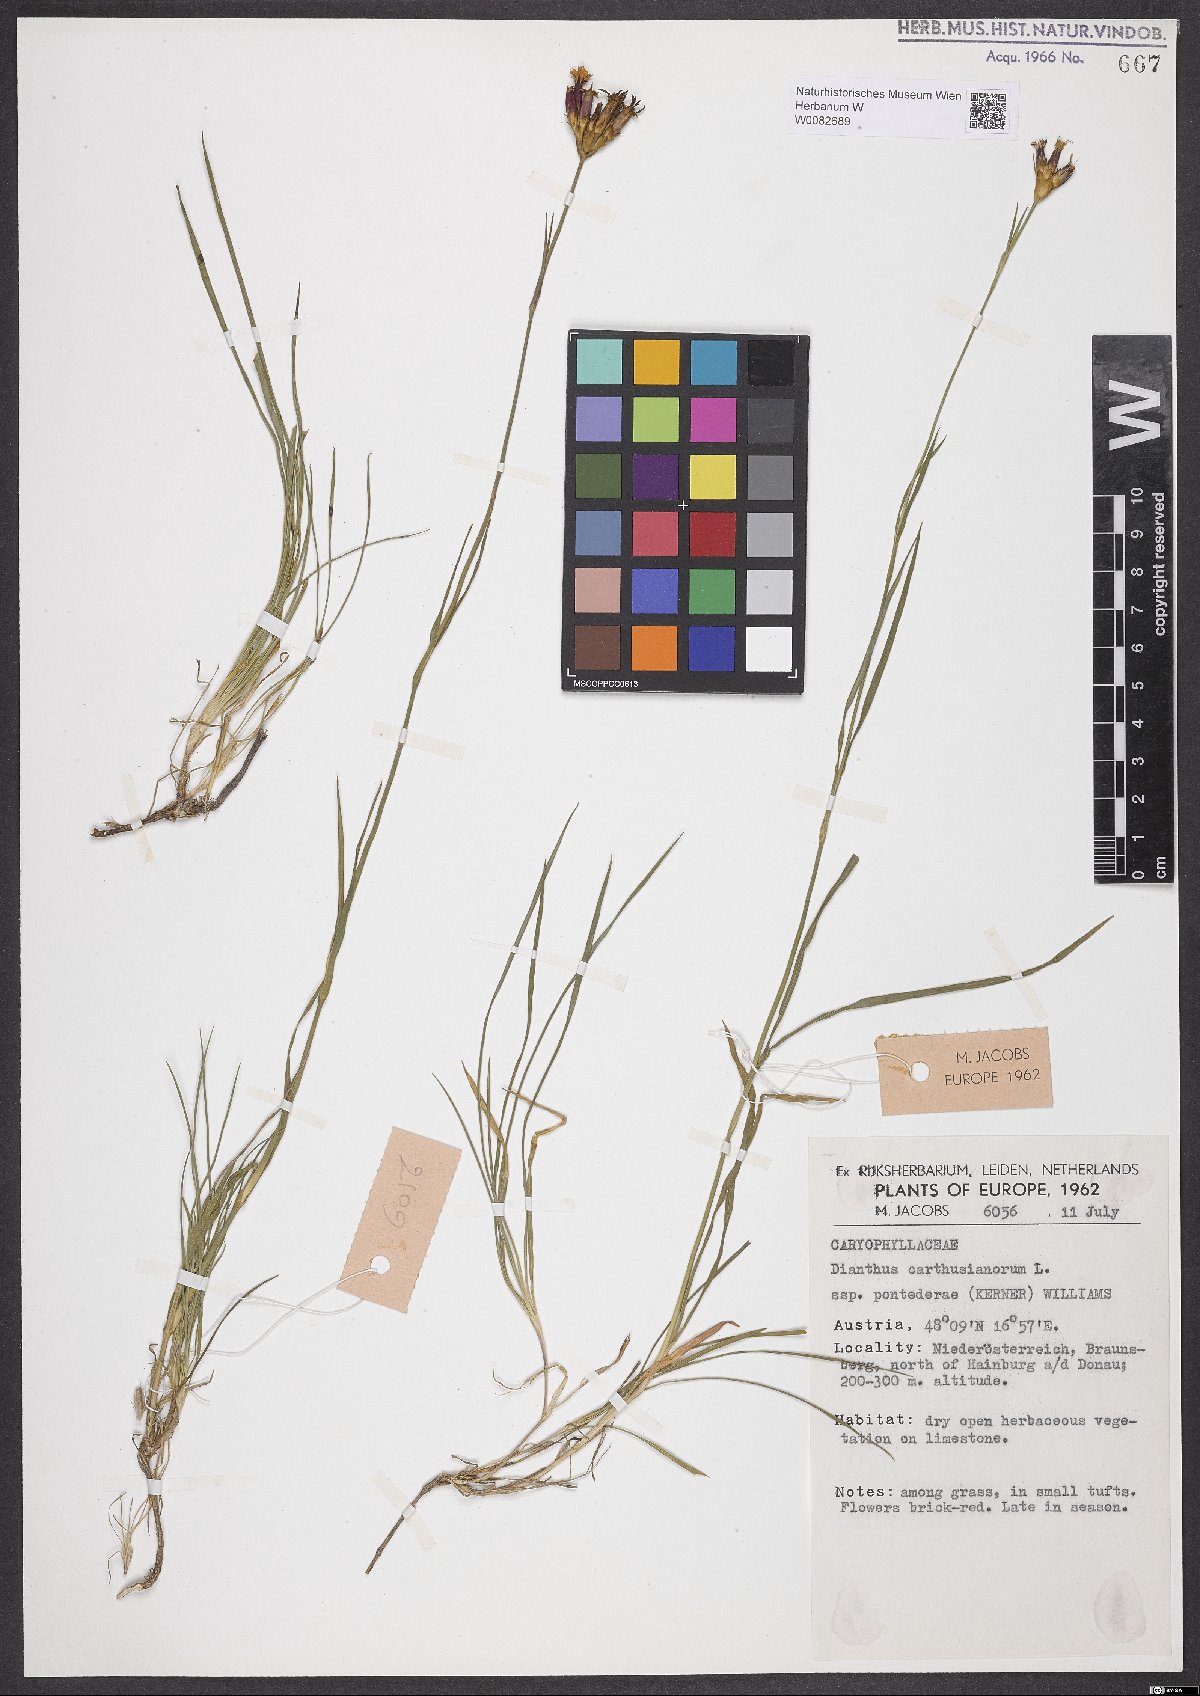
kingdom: Plantae
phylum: Tracheophyta
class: Magnoliopsida
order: Caryophyllales
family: Caryophyllaceae
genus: Dianthus
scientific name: Dianthus carthusianorum
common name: Carthusian pink
